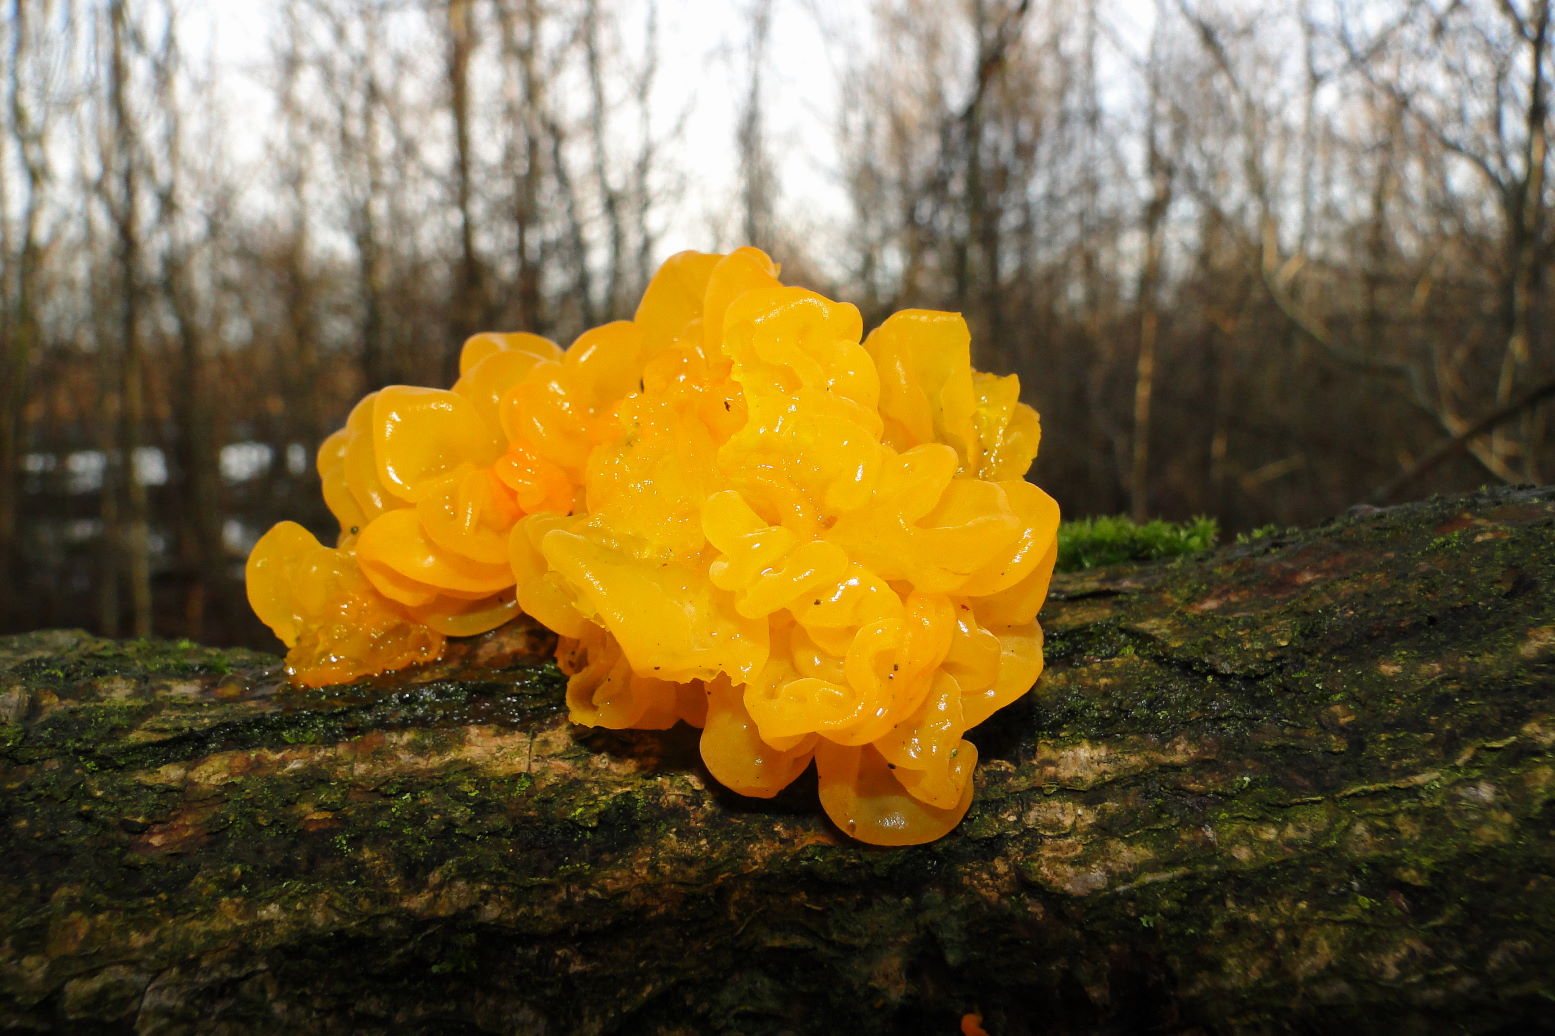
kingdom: Fungi
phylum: Basidiomycota
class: Tremellomycetes
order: Tremellales
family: Tremellaceae
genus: Tremella
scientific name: Tremella mesenterica
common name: gul bævresvamp
